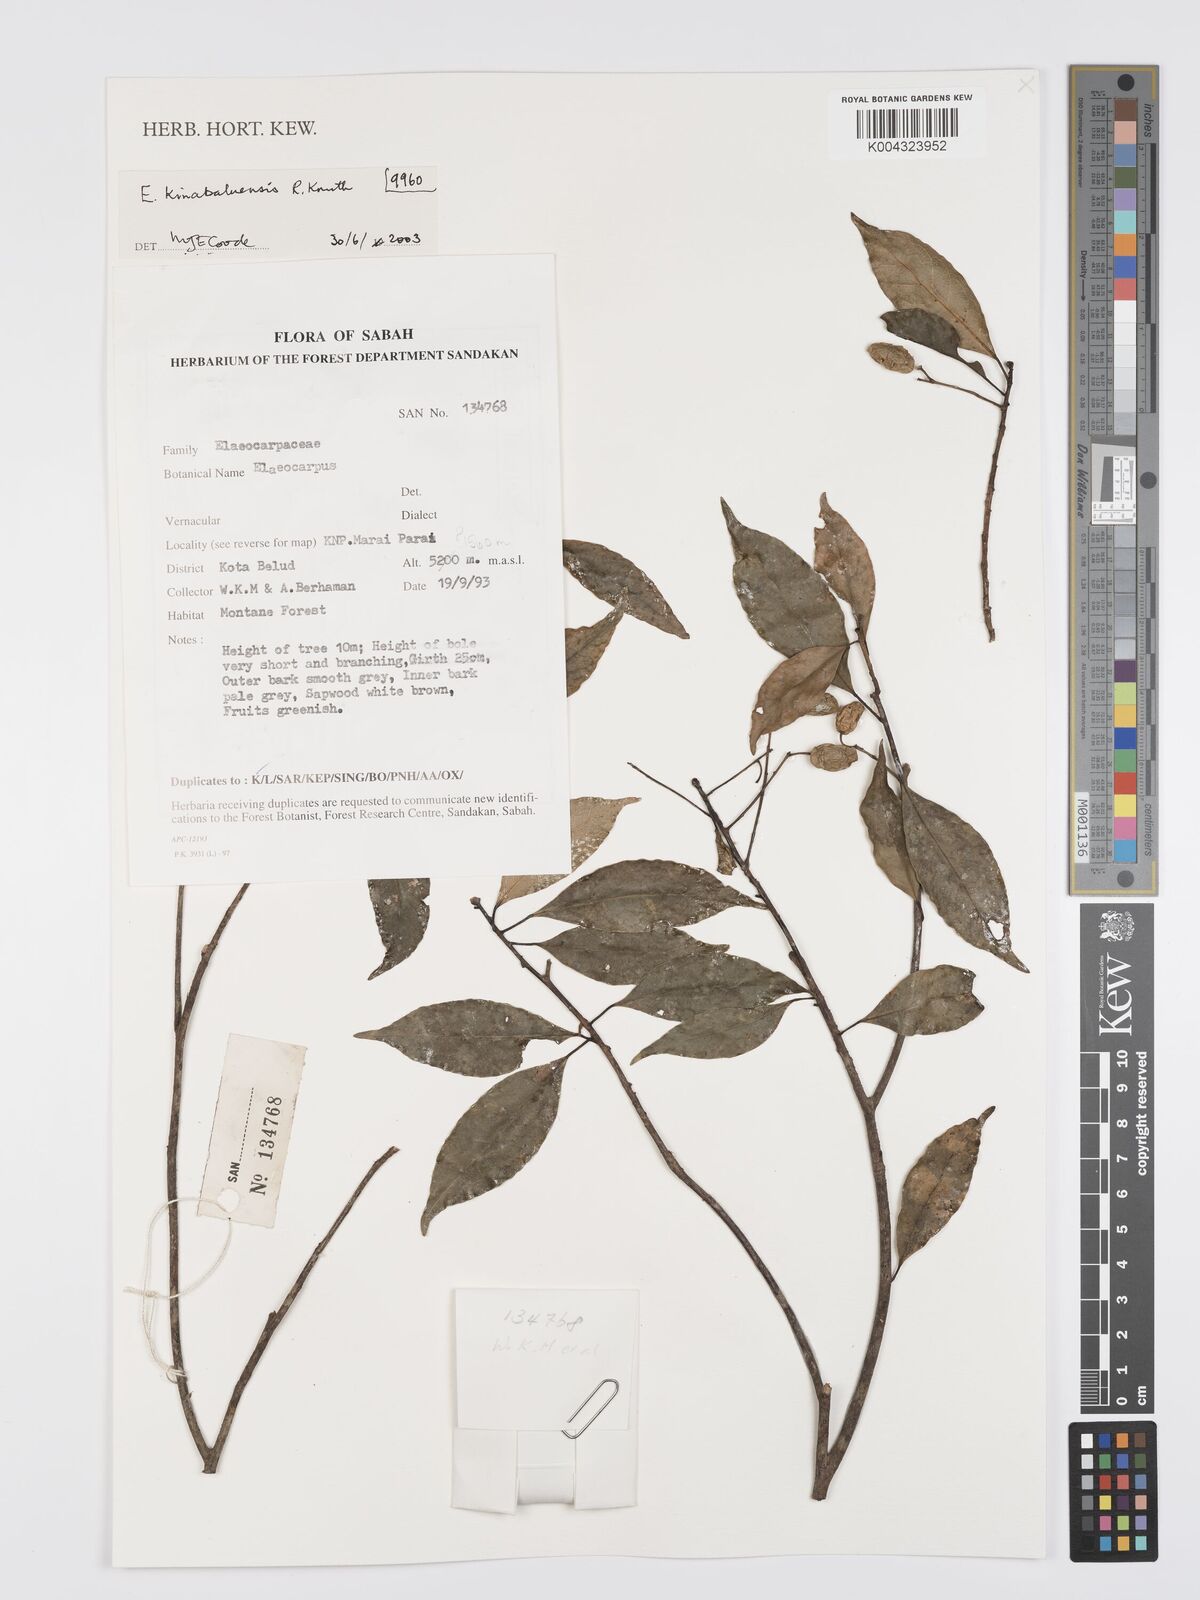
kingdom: Plantae
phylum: Tracheophyta
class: Magnoliopsida
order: Oxalidales
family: Elaeocarpaceae
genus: Elaeocarpus
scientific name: Elaeocarpus kinabaluensis
